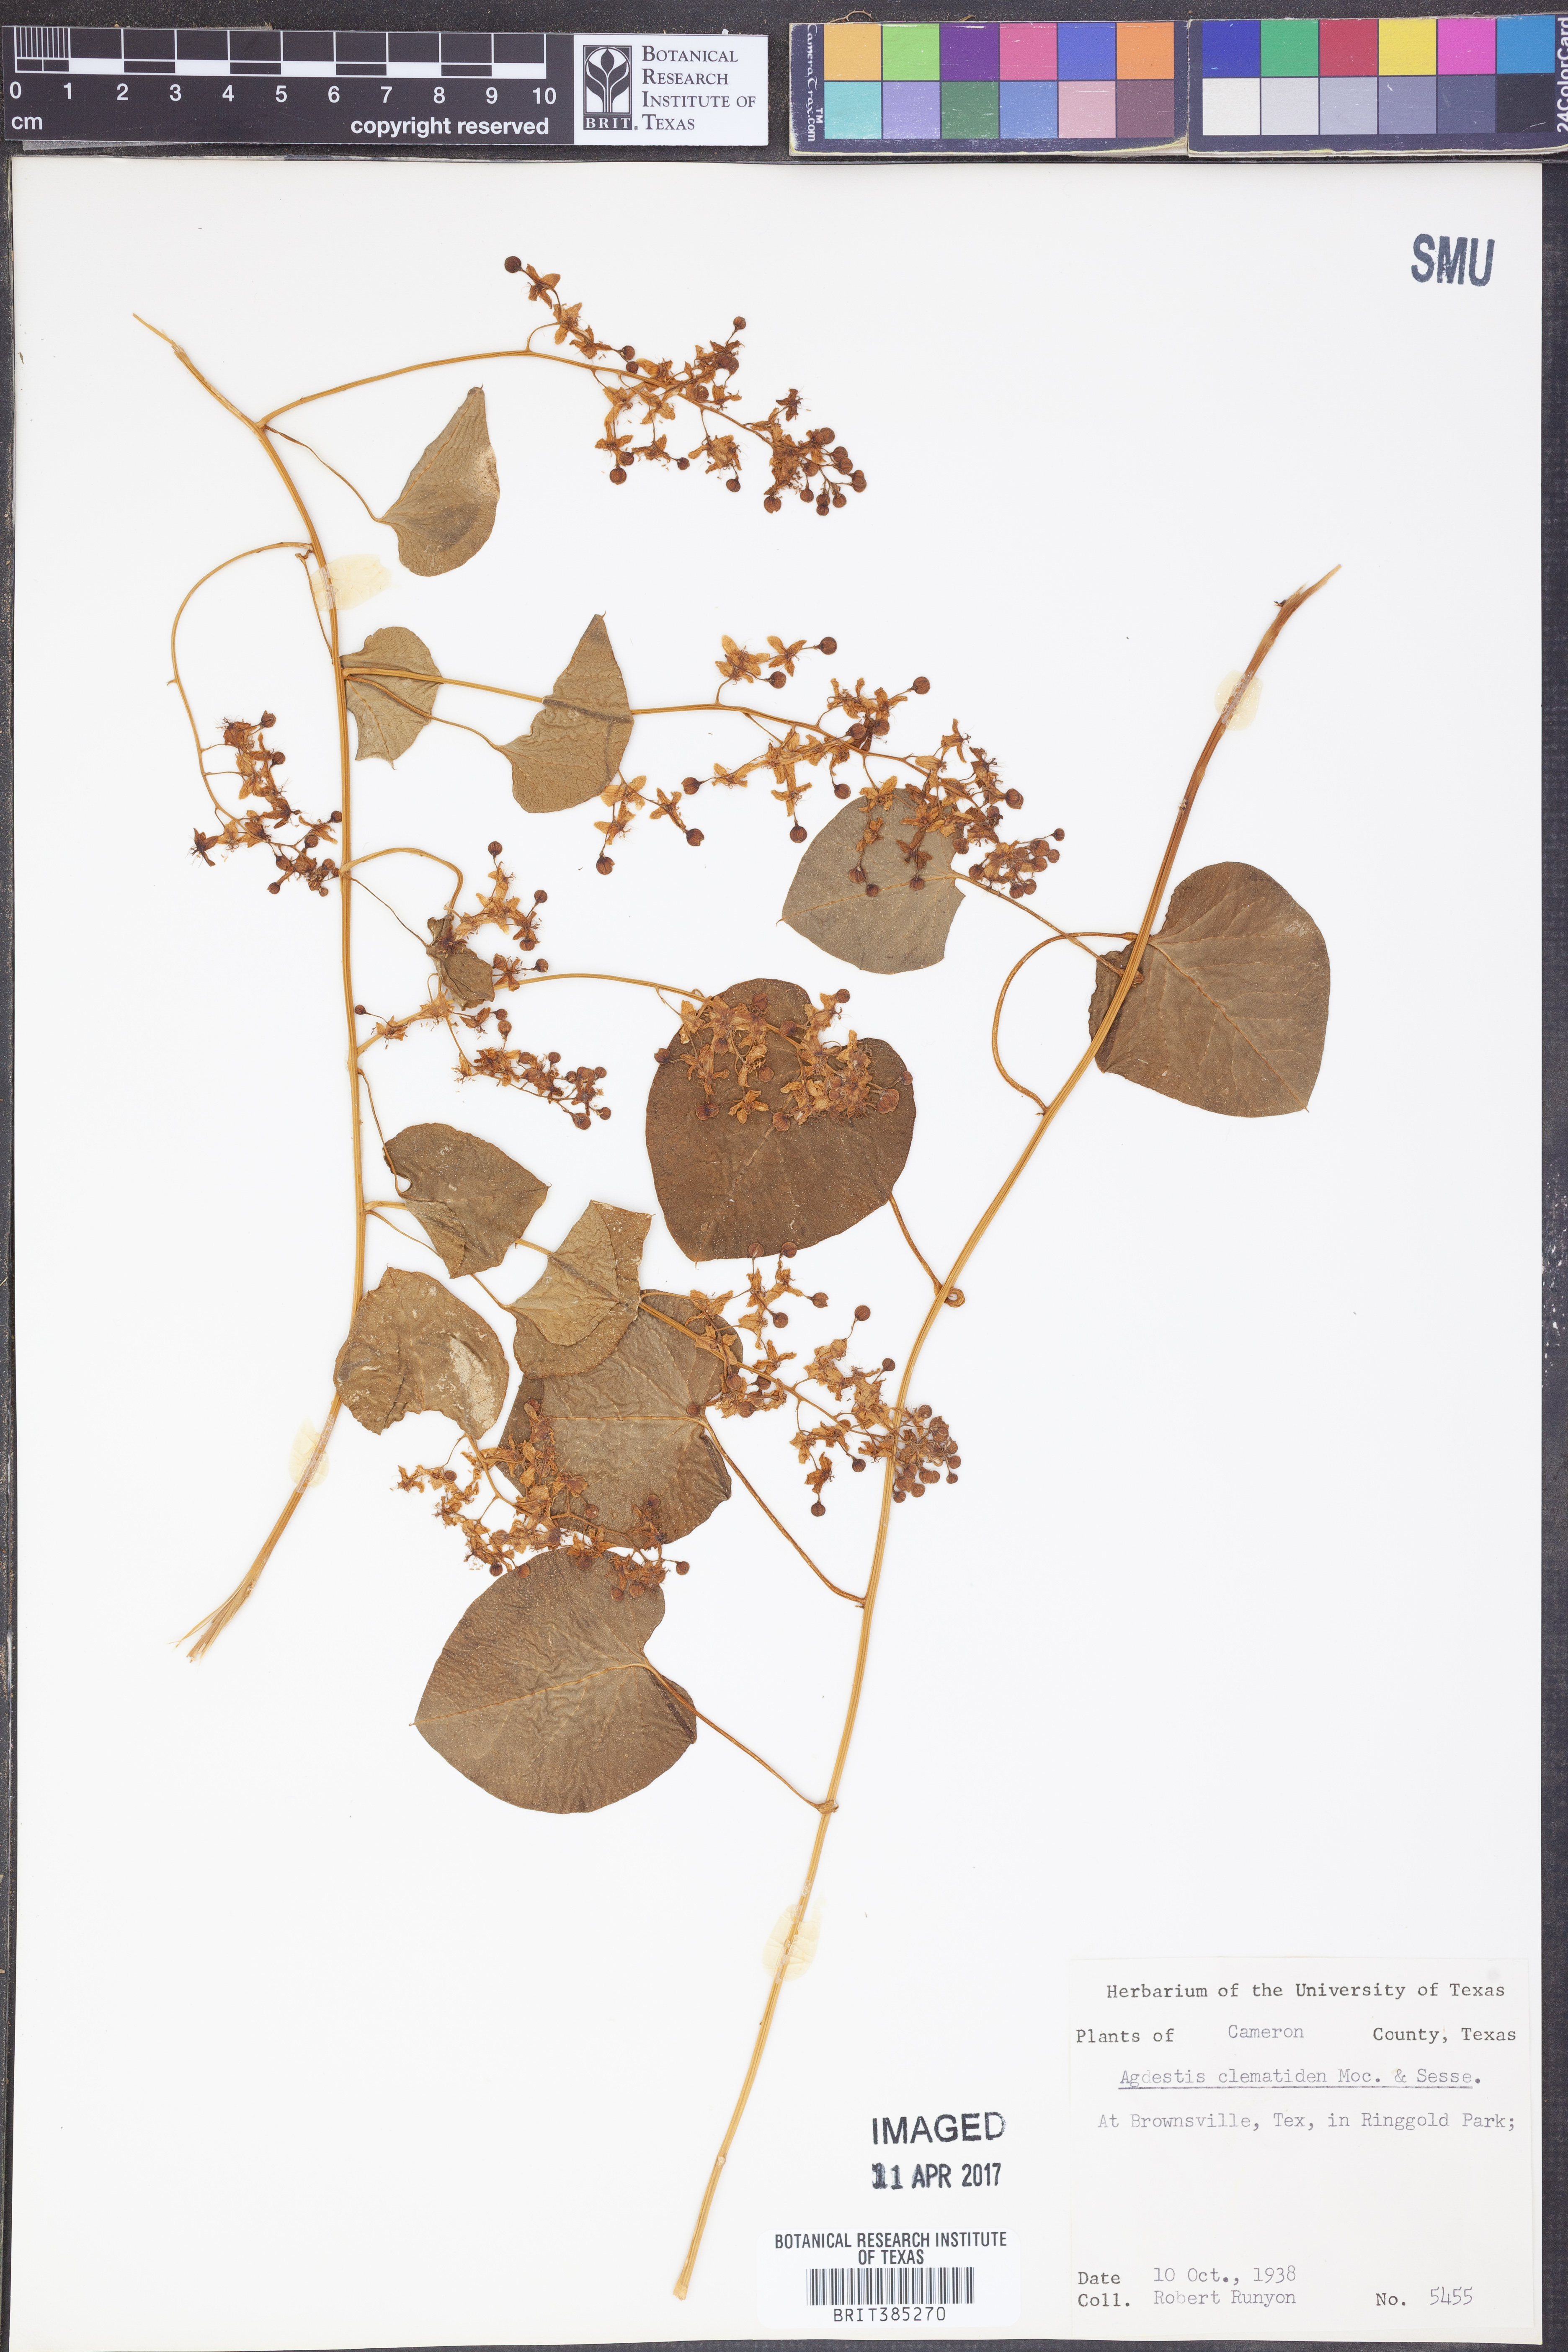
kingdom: Plantae
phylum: Tracheophyta
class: Magnoliopsida
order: Caryophyllales
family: Agdestidaceae
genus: Agdestis
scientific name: Agdestis clematidea
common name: Rockroot
